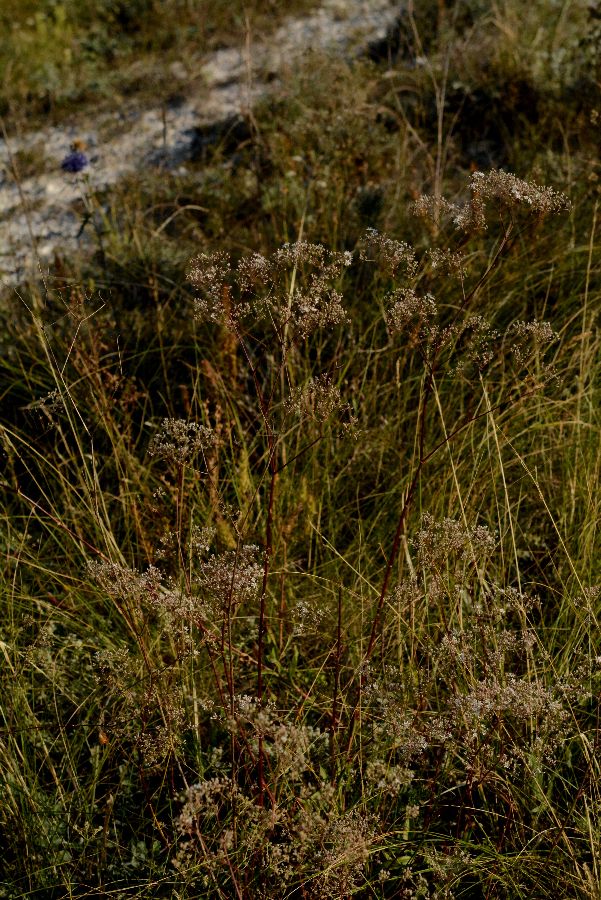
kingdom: Plantae
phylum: Tracheophyta
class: Magnoliopsida
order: Caryophyllales
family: Caryophyllaceae
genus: Gypsophila
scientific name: Gypsophila altissima
